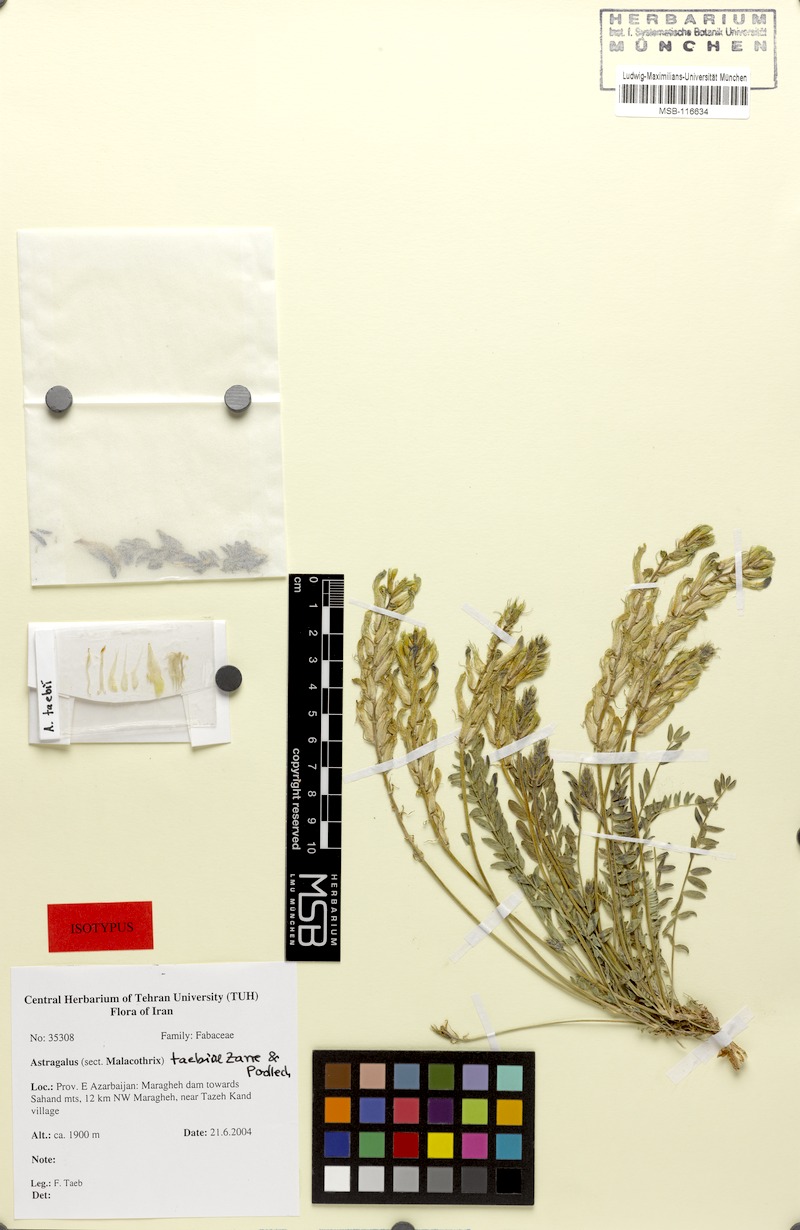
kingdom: Plantae
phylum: Tracheophyta
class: Magnoliopsida
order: Fabales
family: Fabaceae
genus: Astragalus
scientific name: Astragalus taebiae
